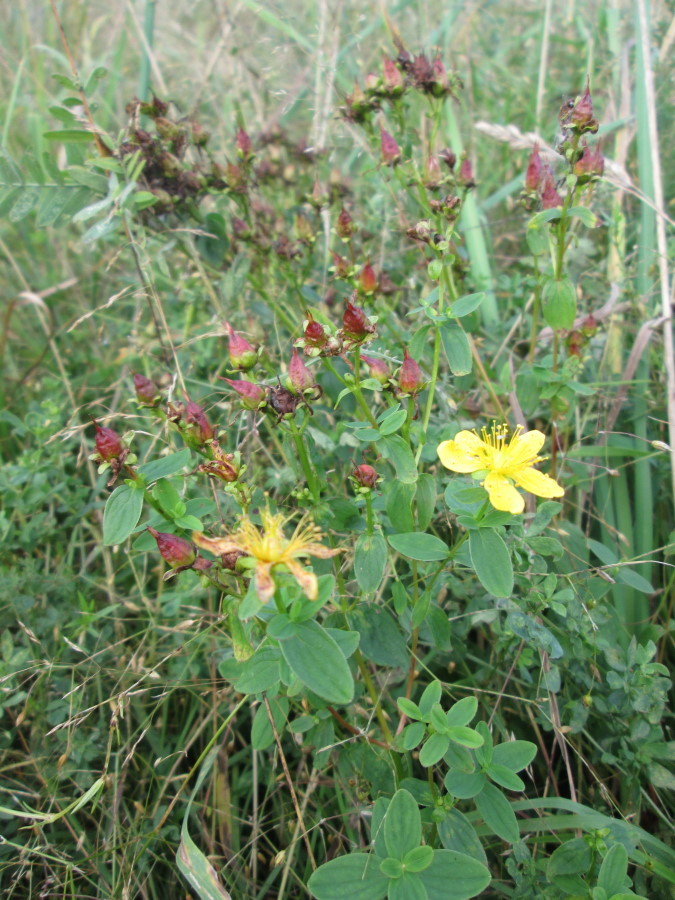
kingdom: Plantae
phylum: Tracheophyta
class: Magnoliopsida
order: Malpighiales
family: Hypericaceae
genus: Hypericum
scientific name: Hypericum perforatum
